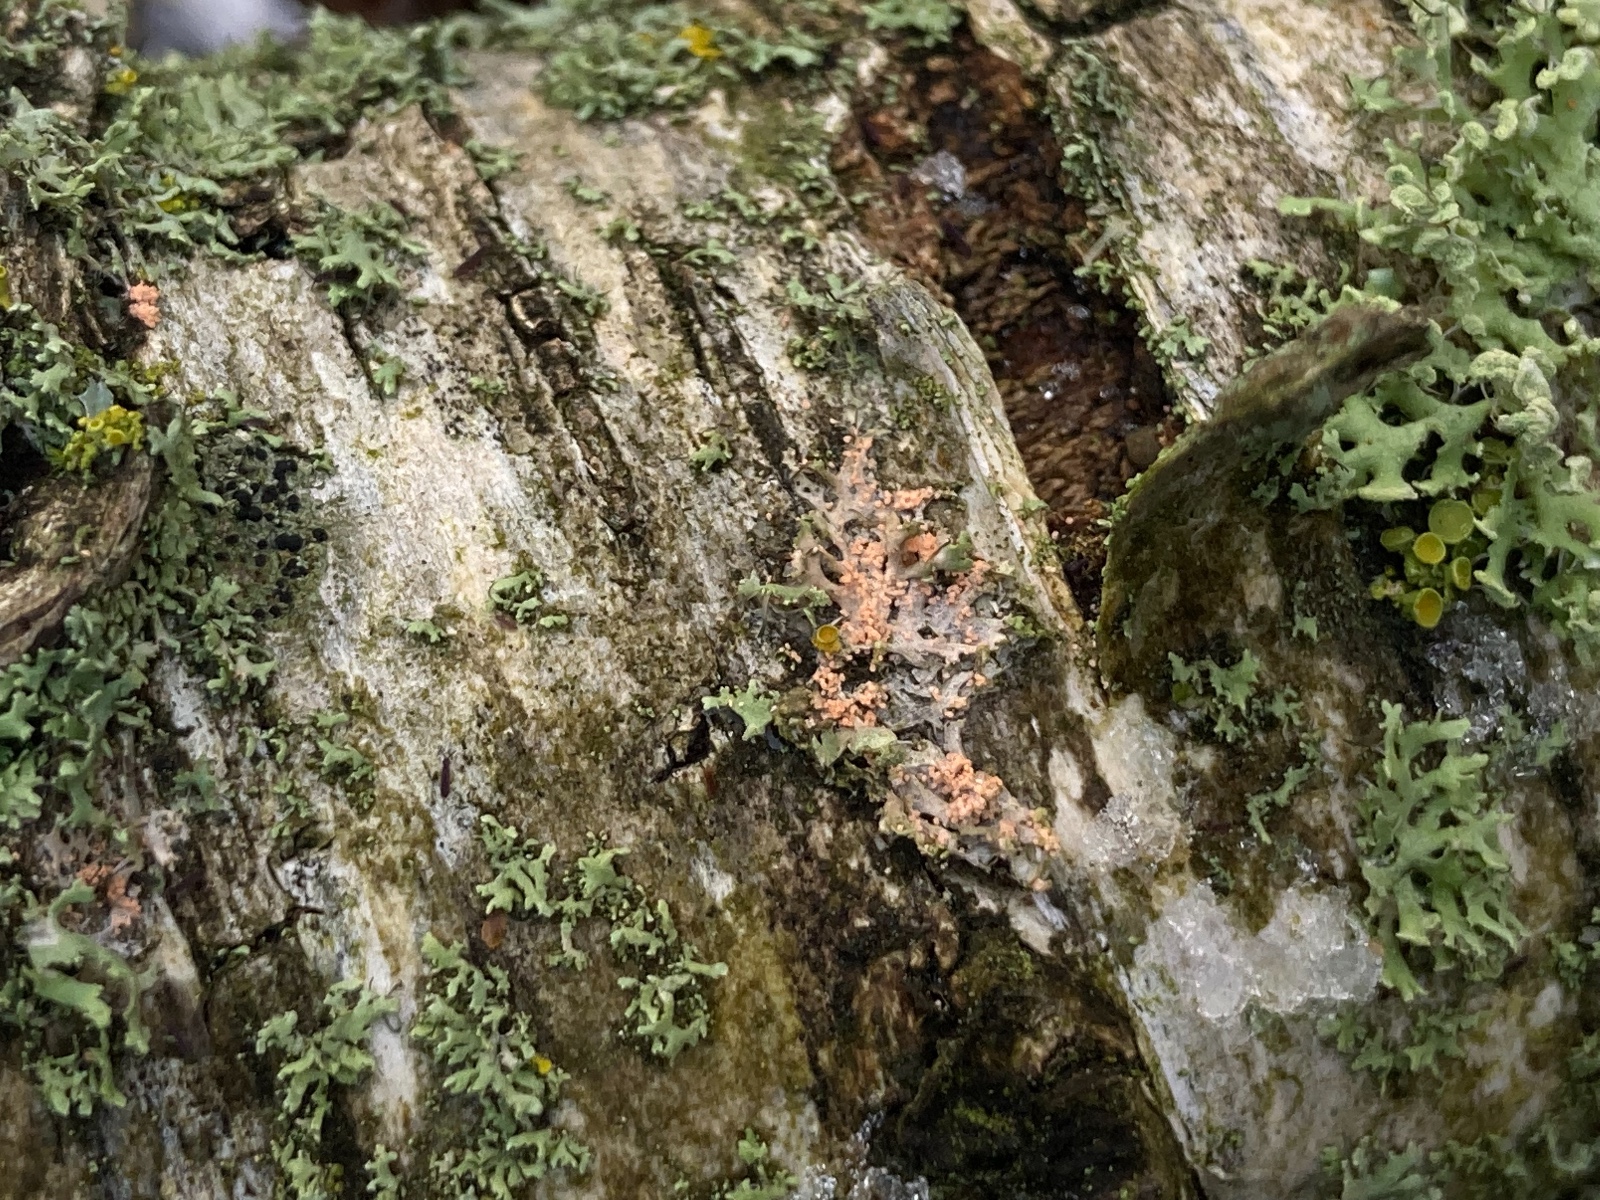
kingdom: Fungi
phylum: Basidiomycota
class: Agaricomycetes
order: Corticiales
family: Corticiaceae
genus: Erythricium
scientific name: Erythricium aurantiacum
